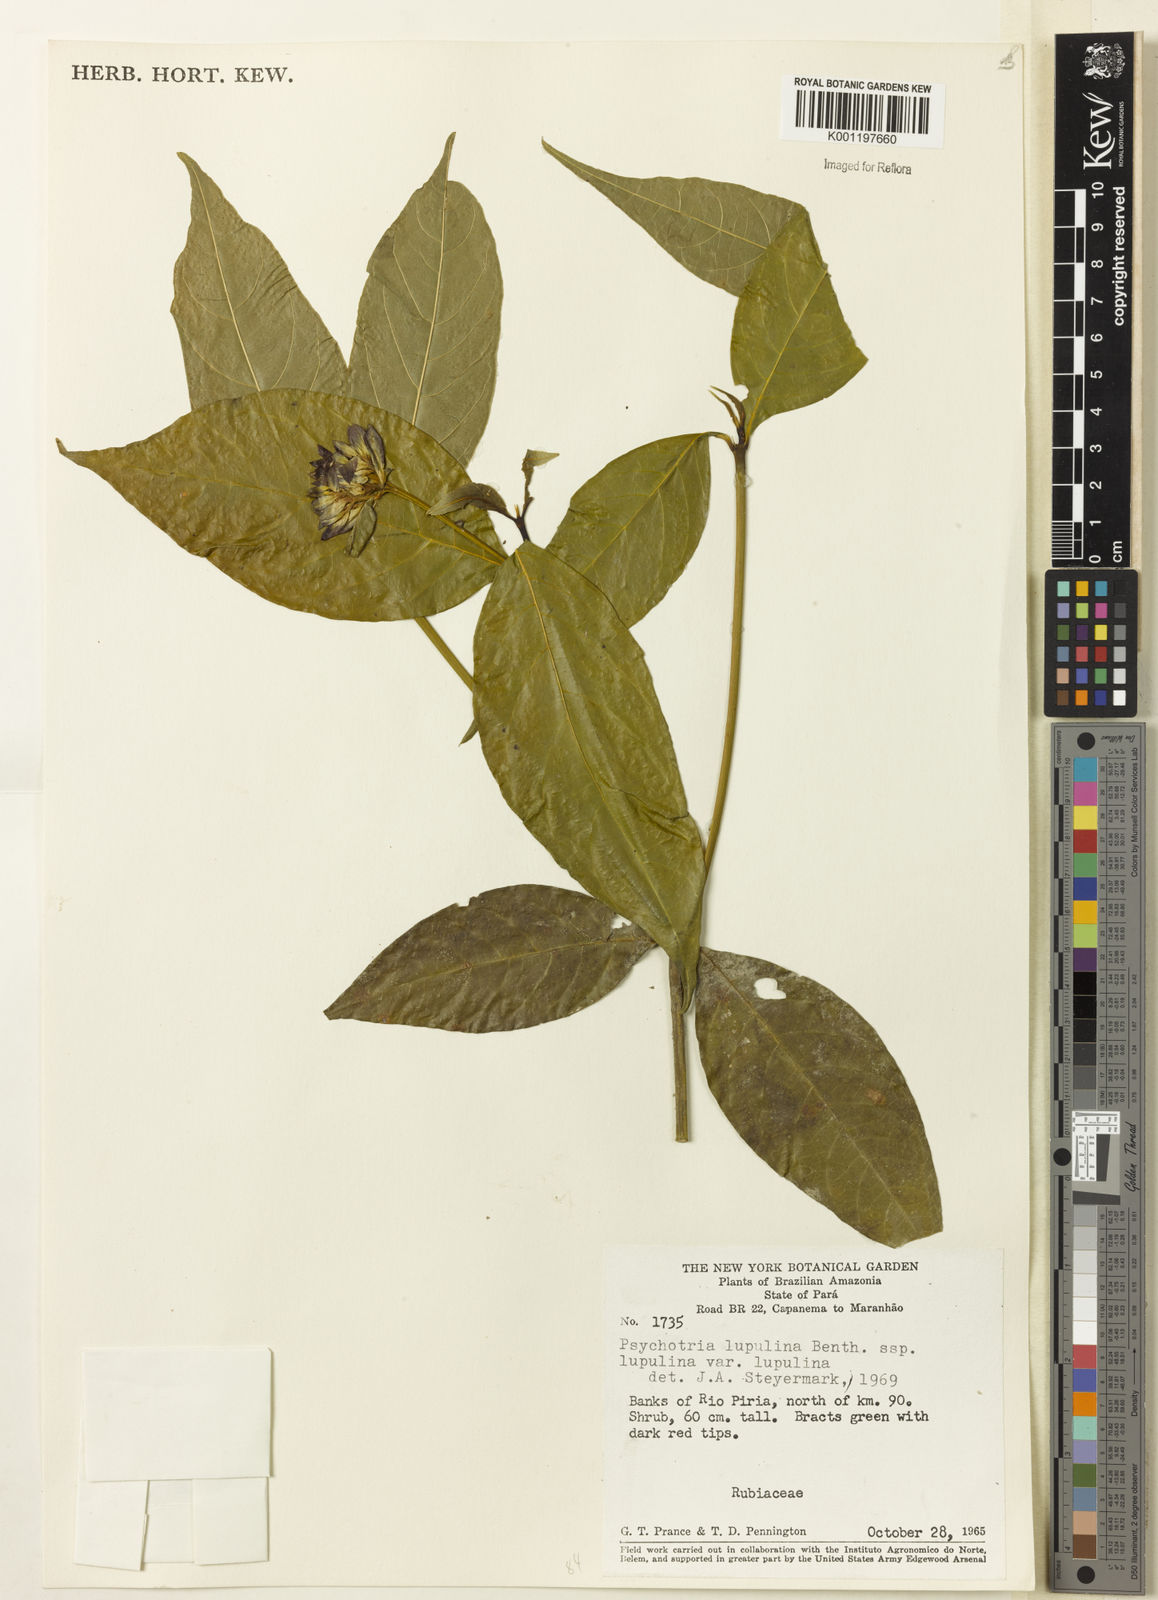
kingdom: Plantae
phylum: Tracheophyta
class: Magnoliopsida
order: Gentianales
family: Rubiaceae
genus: Palicourea
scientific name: Palicourea justiciifolia
